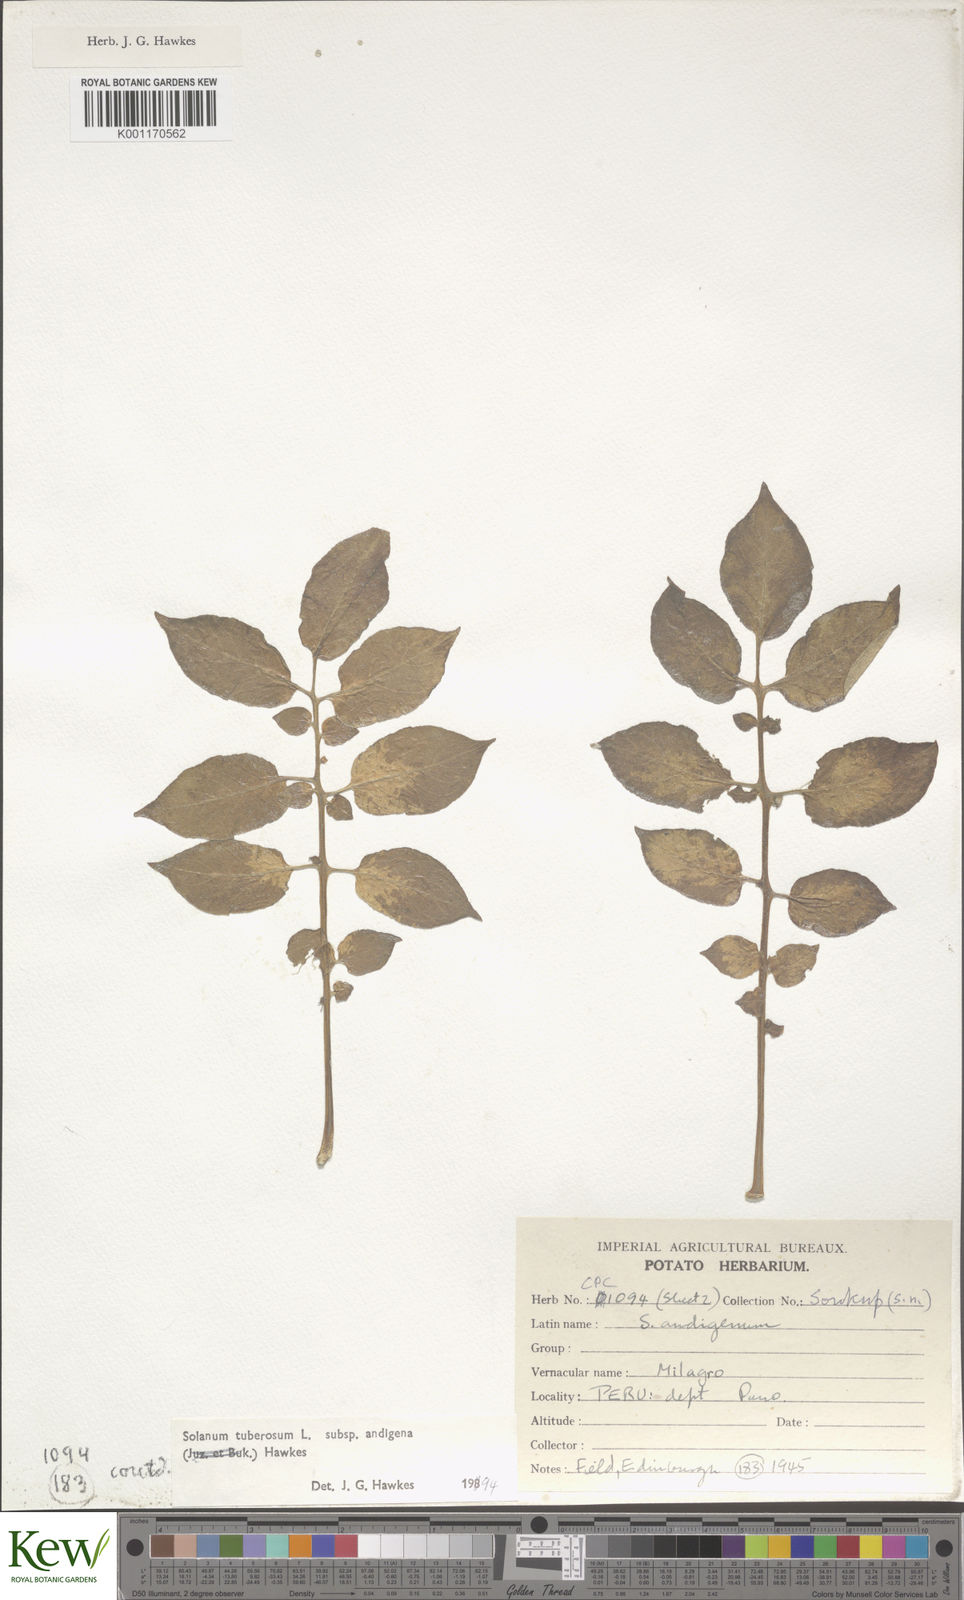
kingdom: Plantae
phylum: Tracheophyta
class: Magnoliopsida
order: Solanales
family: Solanaceae
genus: Solanum
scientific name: Solanum tuberosum
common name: Potato
